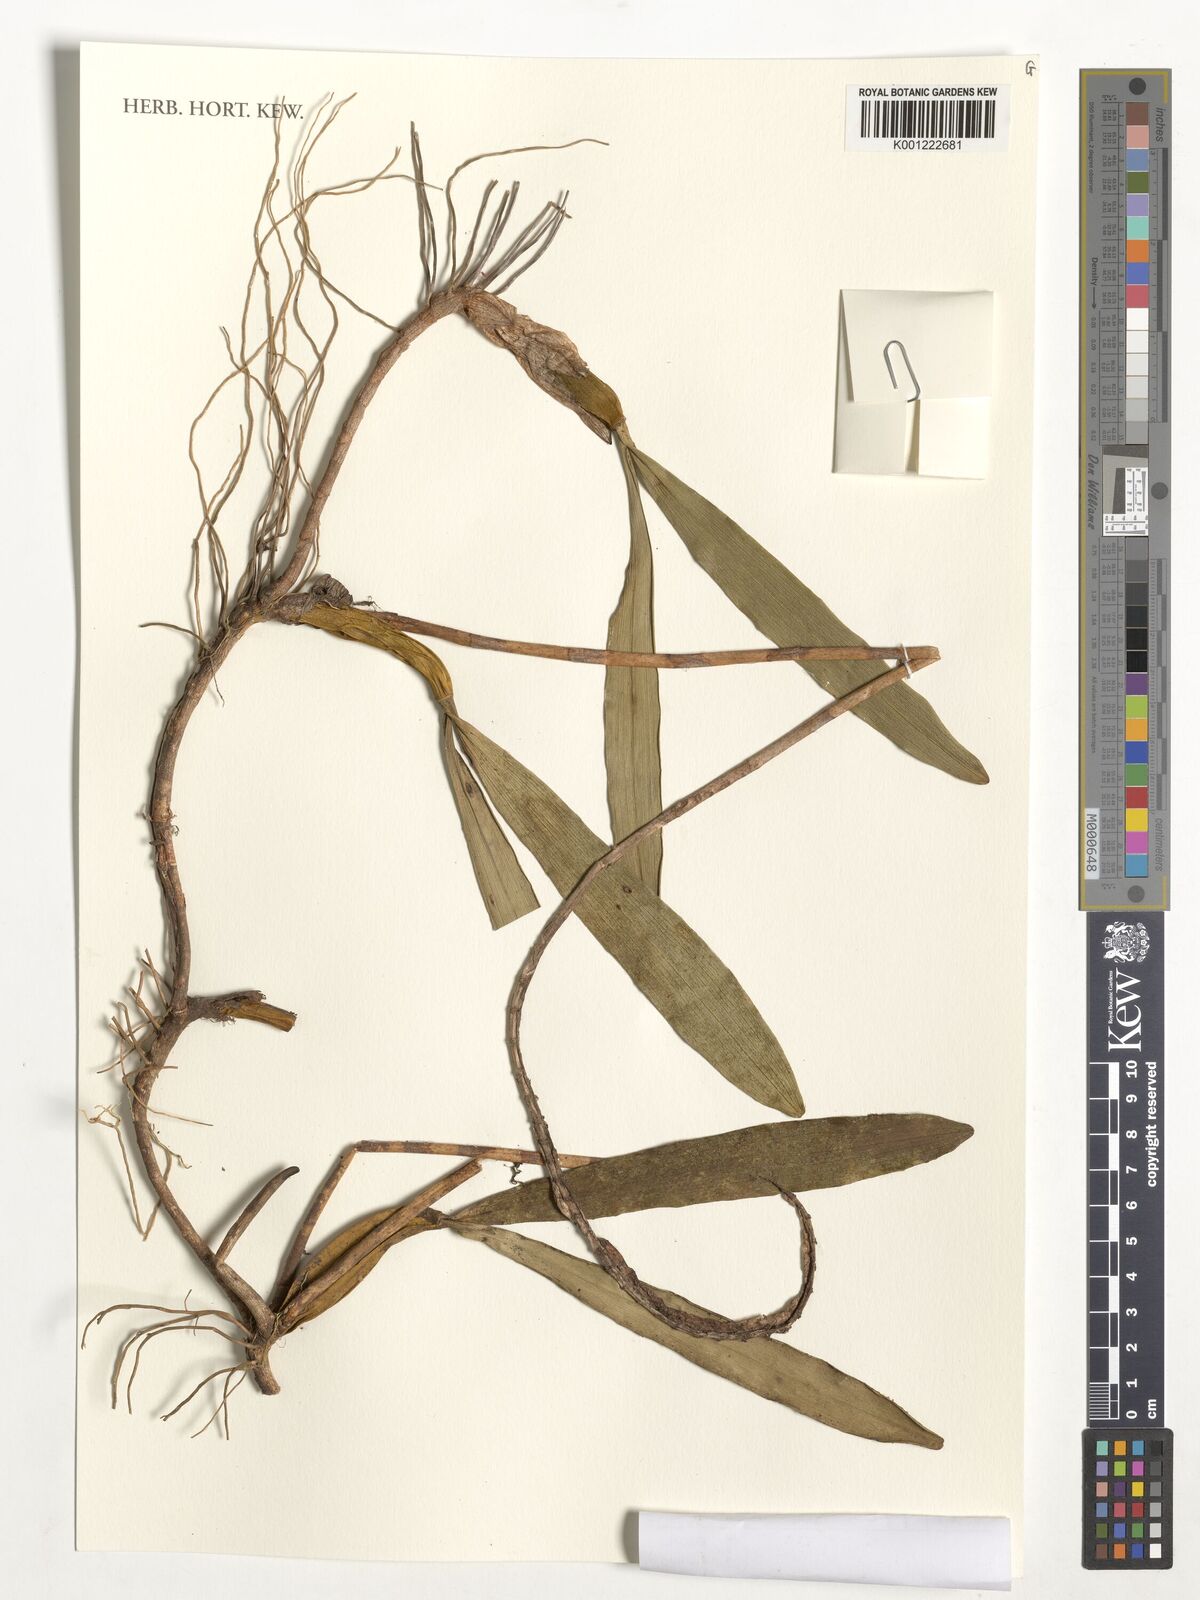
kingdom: Plantae
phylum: Tracheophyta
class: Liliopsida
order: Asparagales
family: Orchidaceae
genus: Bulbophyllum
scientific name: Bulbophyllum maximum
